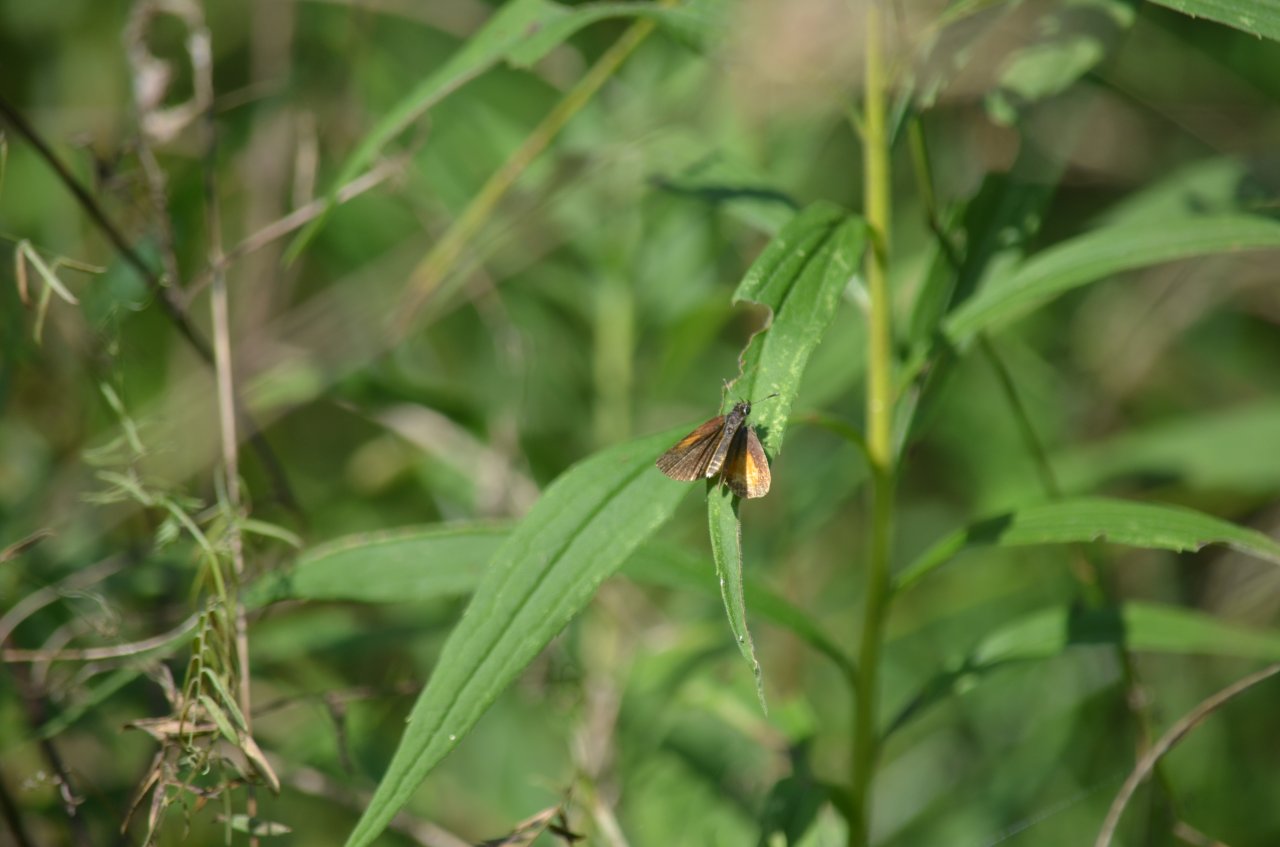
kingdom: Animalia
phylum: Arthropoda
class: Insecta
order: Lepidoptera
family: Hesperiidae
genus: Ancyloxypha
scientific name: Ancyloxypha numitor
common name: Least Skipper
